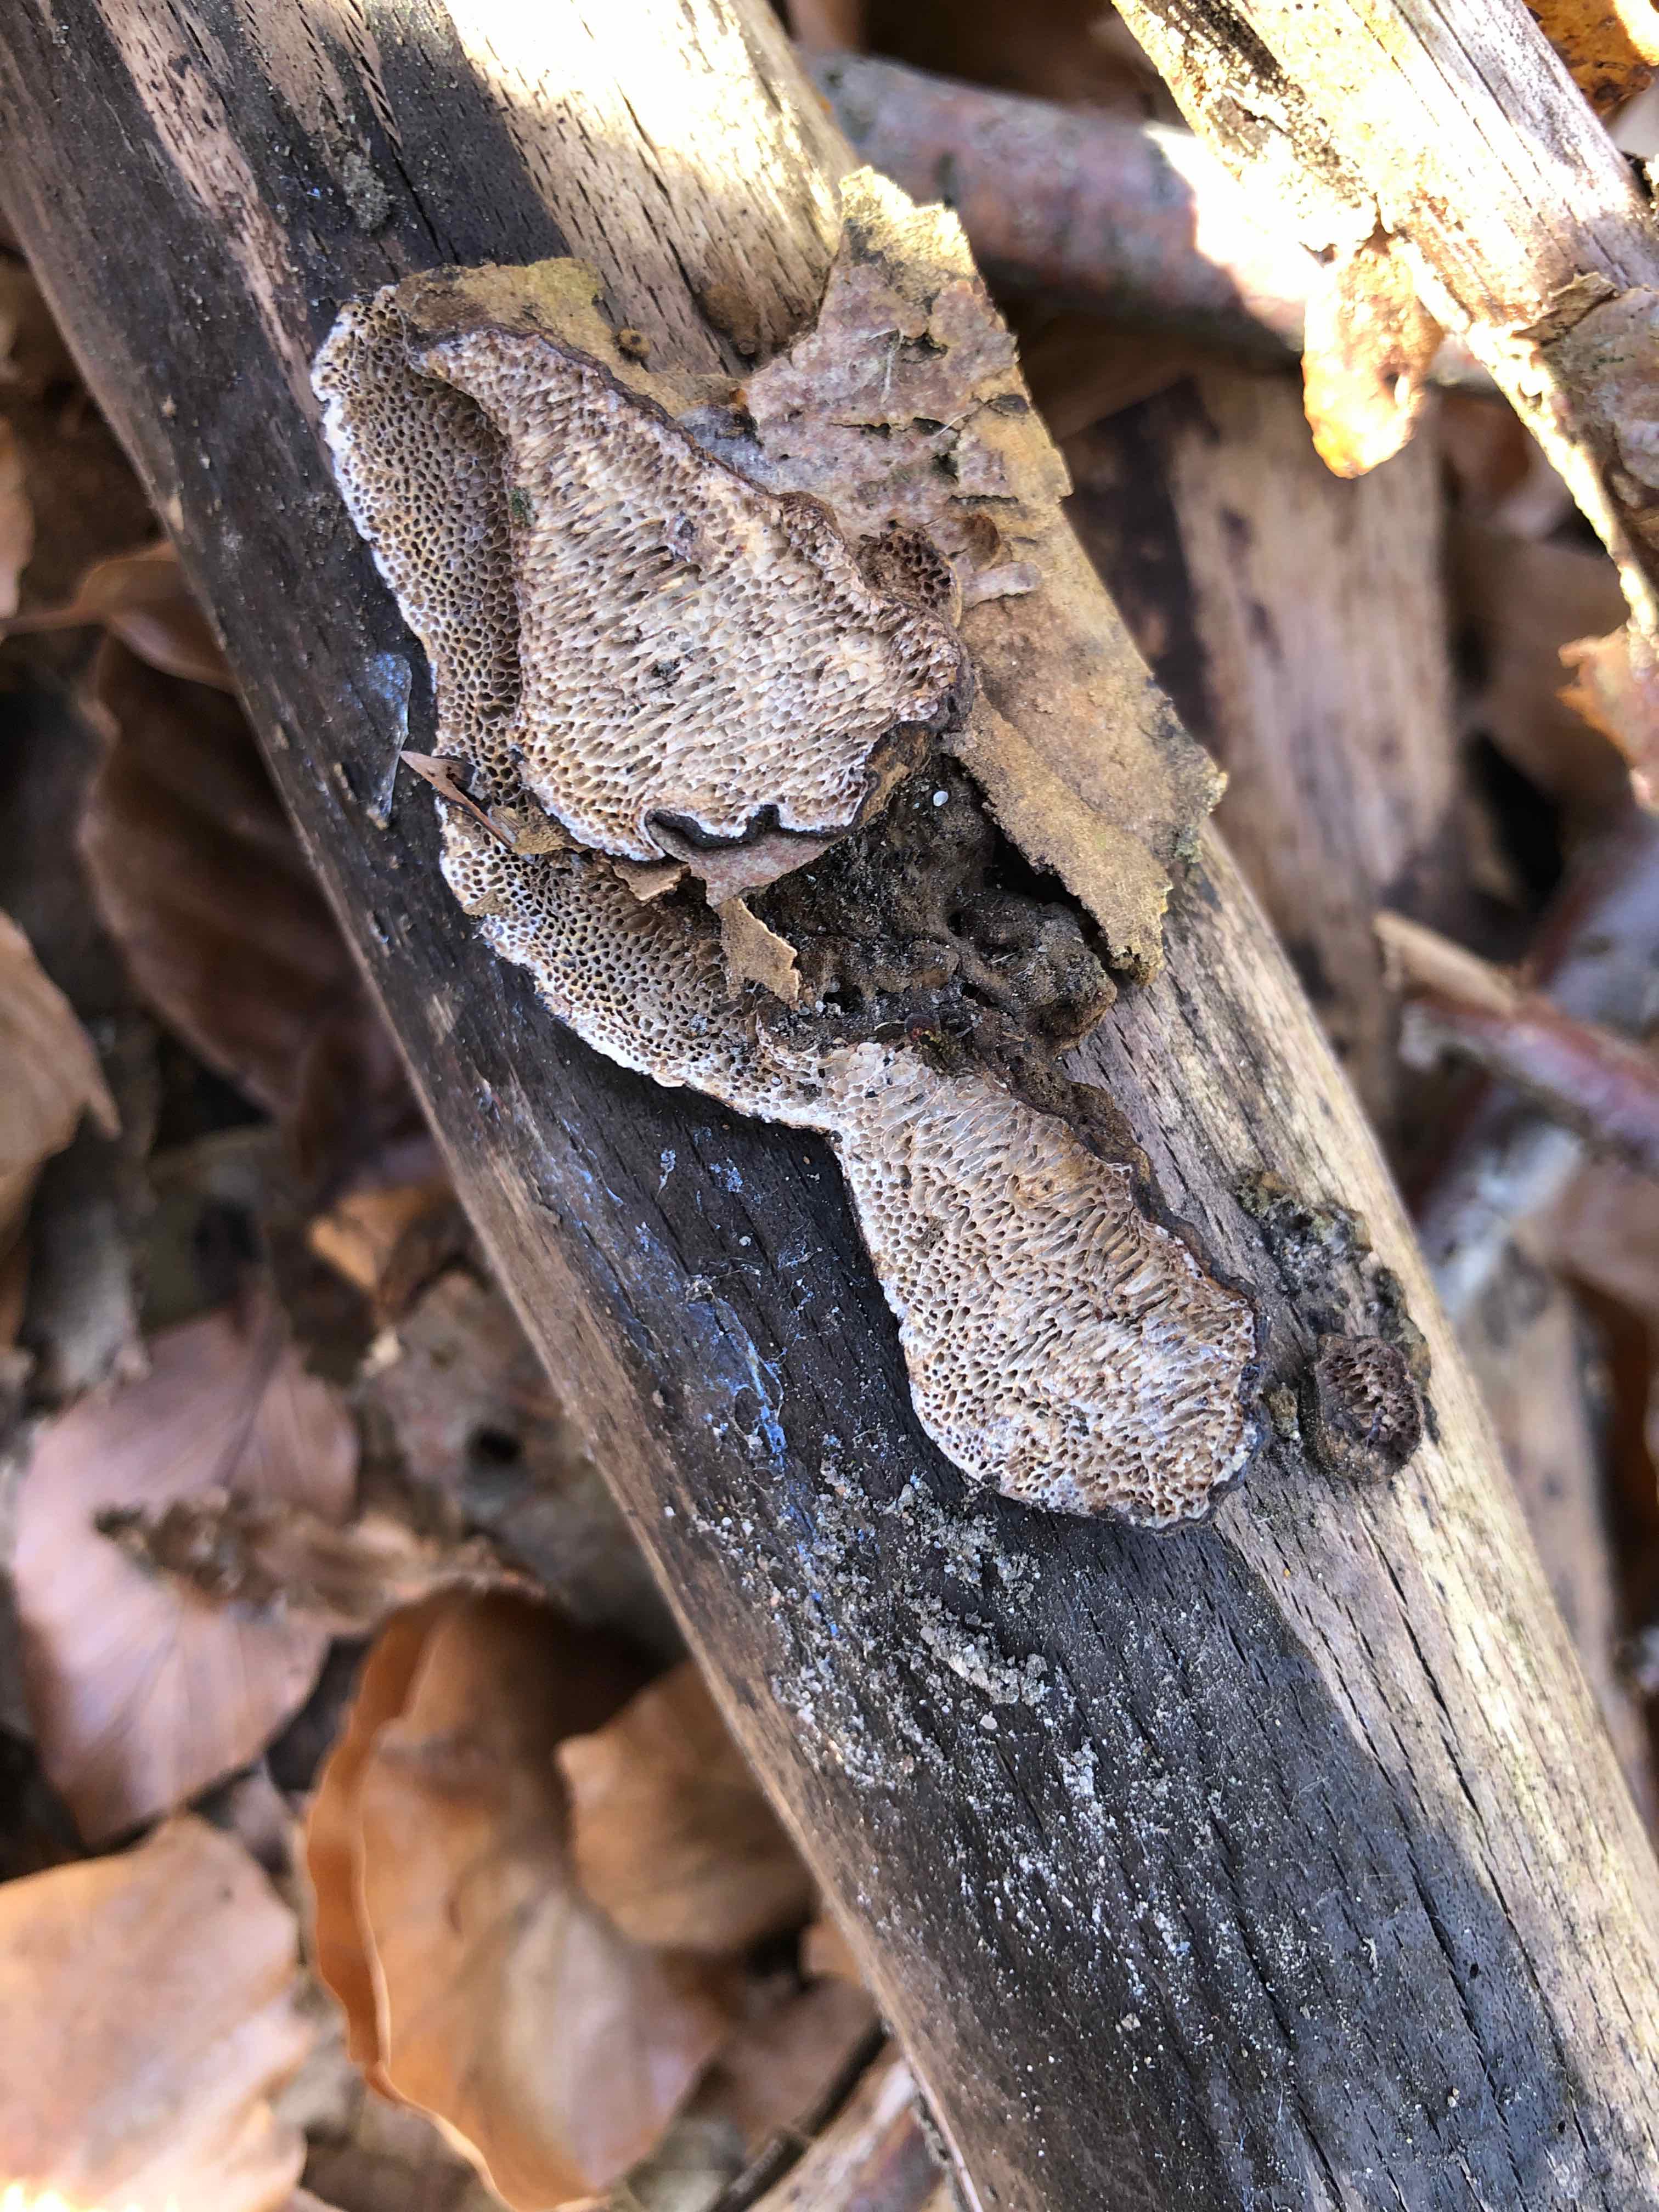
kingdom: Fungi
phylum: Basidiomycota
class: Agaricomycetes
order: Polyporales
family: Polyporaceae
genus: Podofomes
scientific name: Podofomes mollis
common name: blød begporesvamp
